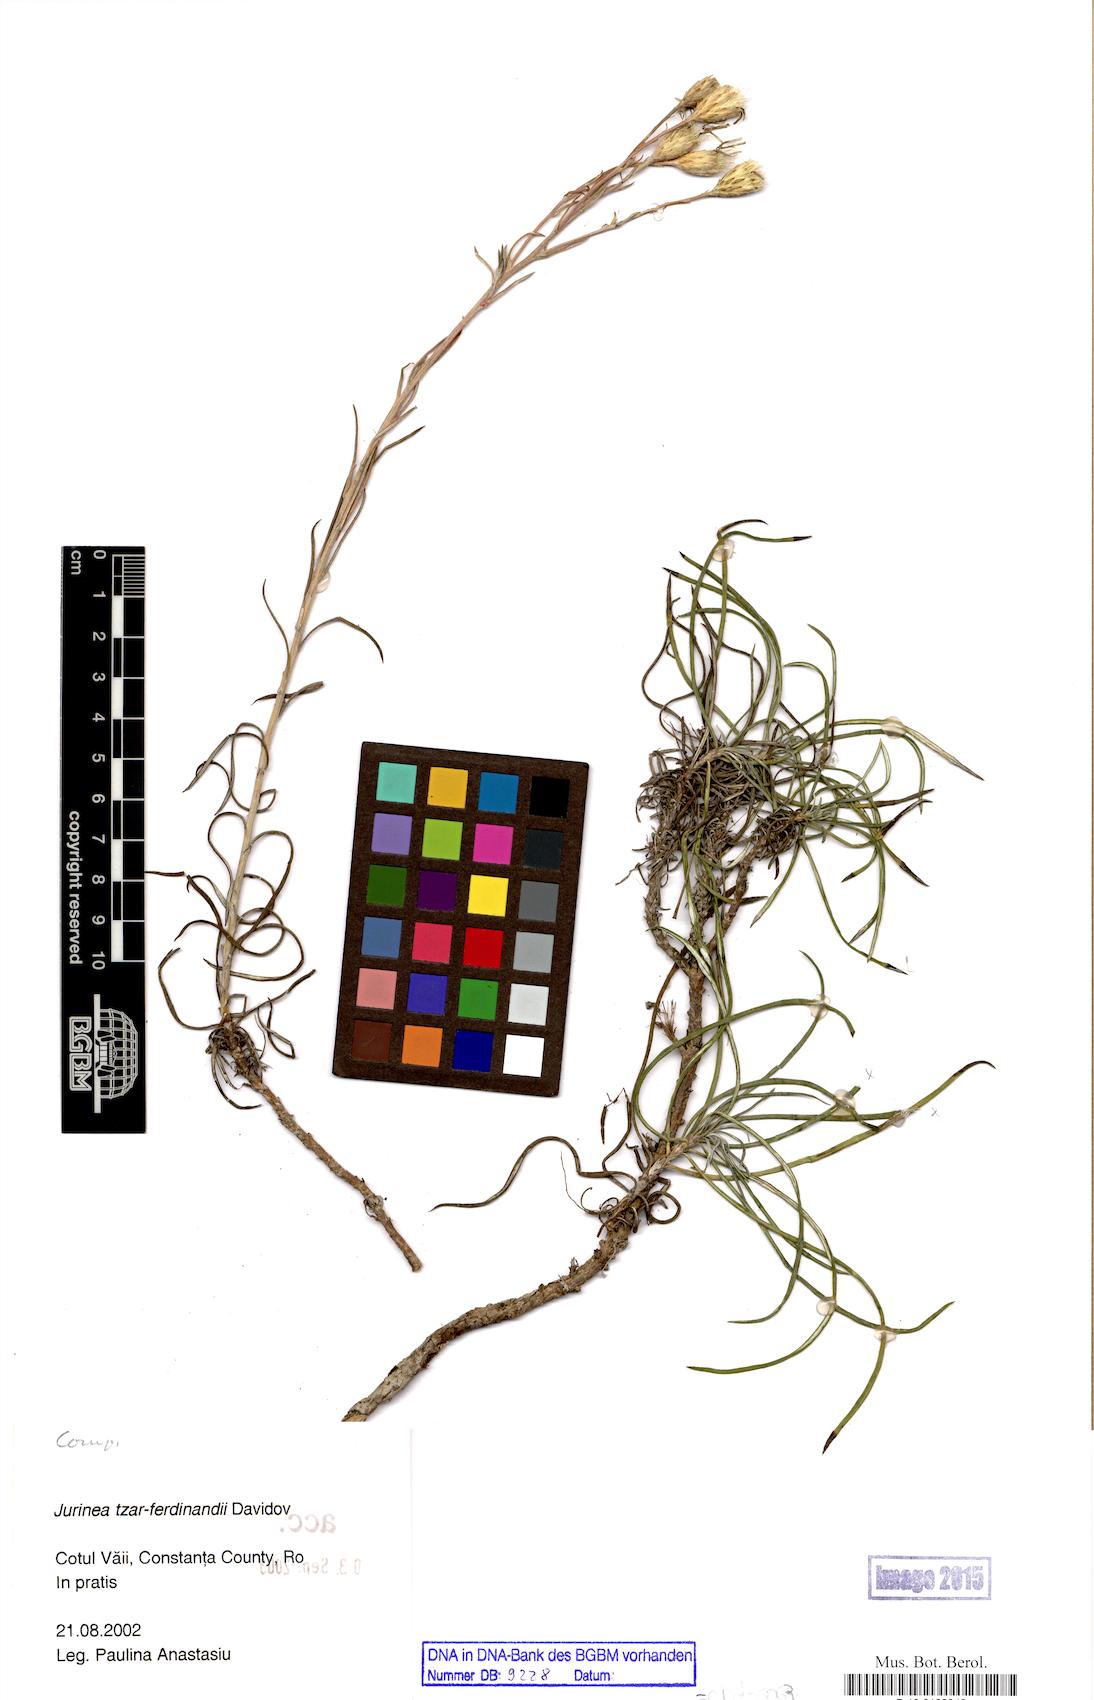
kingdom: Plantae
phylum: Tracheophyta
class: Magnoliopsida
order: Asterales
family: Asteraceae
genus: Jurinea
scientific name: Jurinea tzar-ferdinandii
